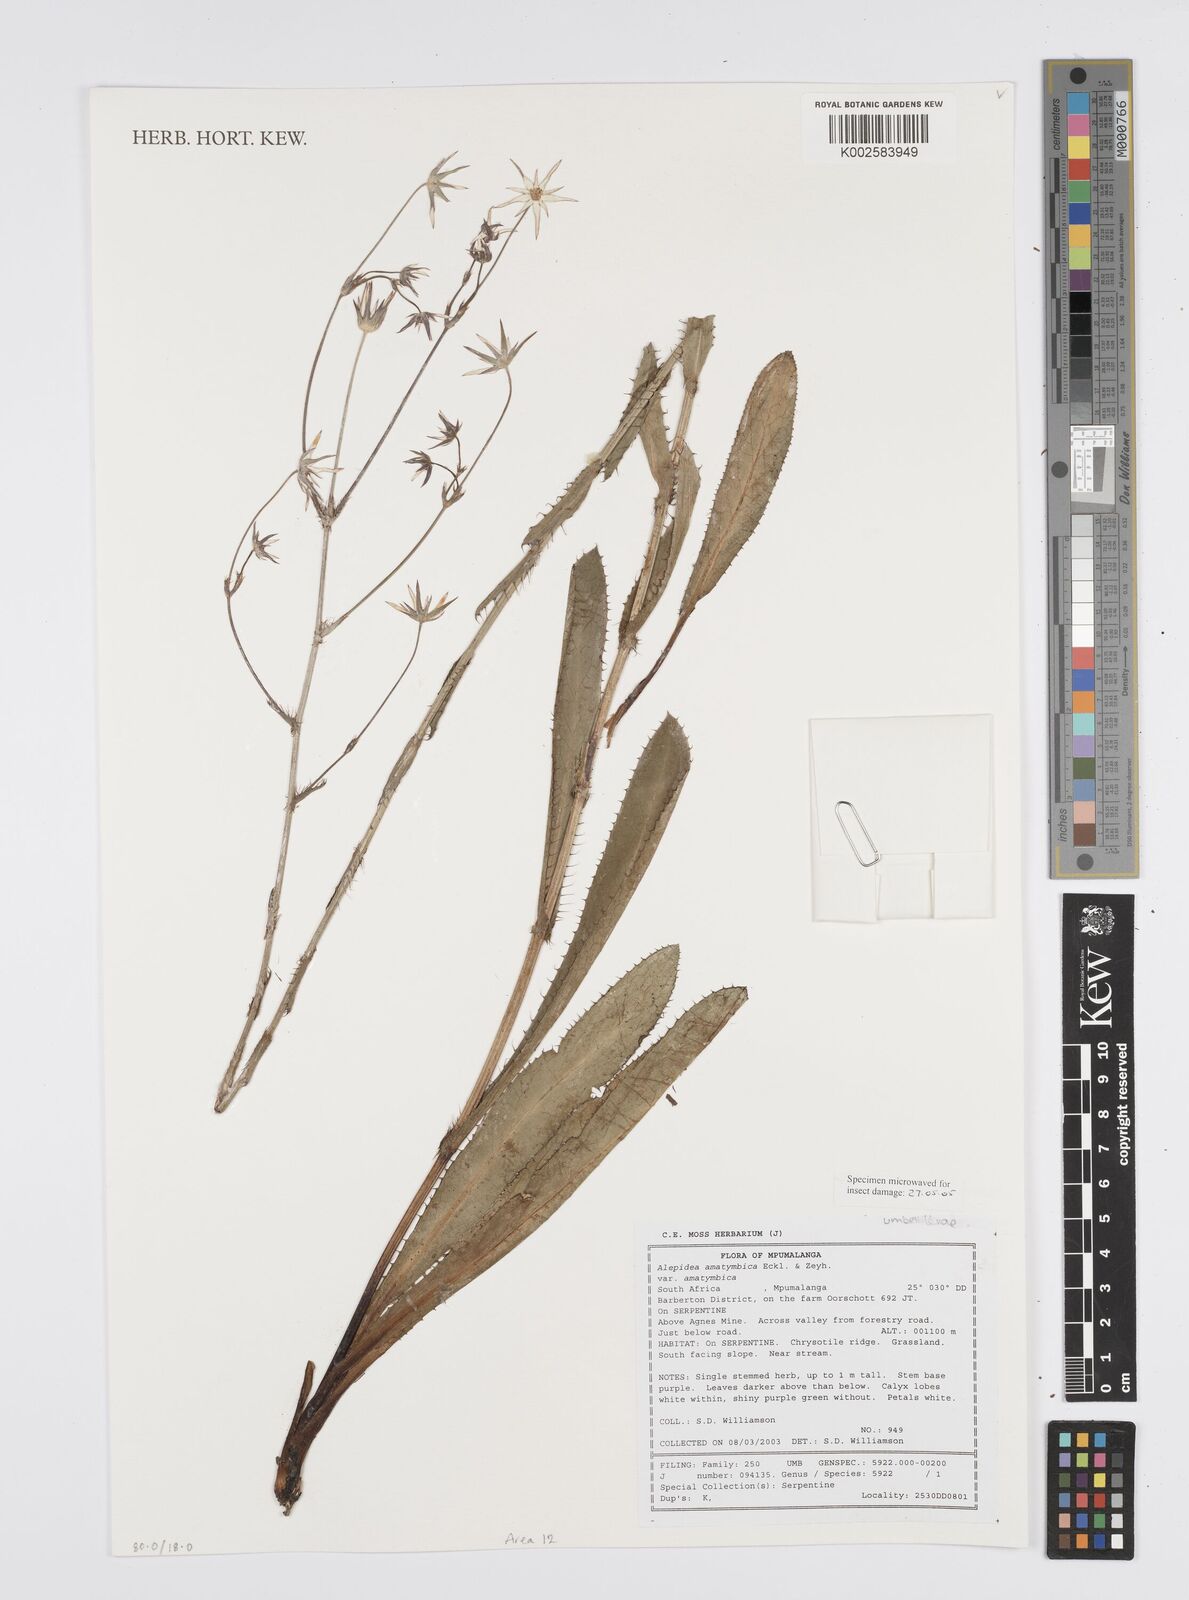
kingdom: Plantae
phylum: Tracheophyta
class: Magnoliopsida
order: Apiales
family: Apiaceae
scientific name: Apiaceae
